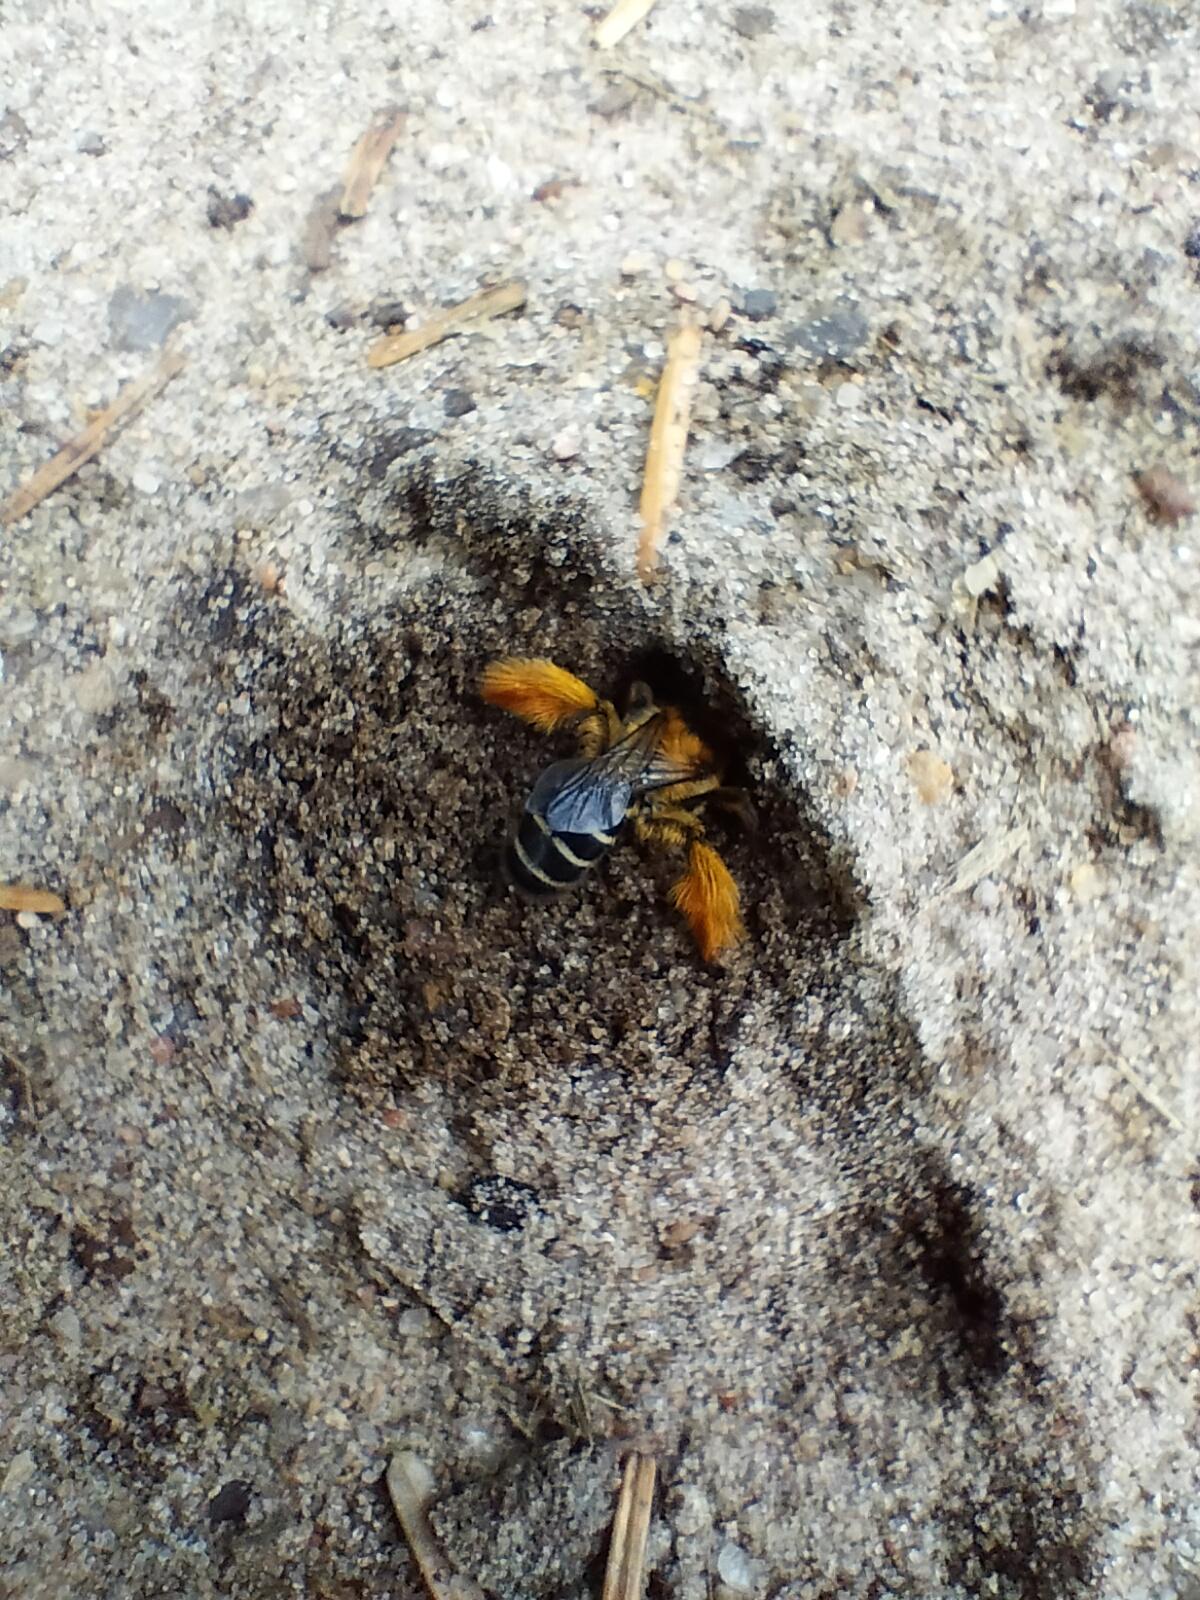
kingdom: Animalia
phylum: Arthropoda
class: Insecta
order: Hymenoptera
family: Melittidae
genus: Dasypoda
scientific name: Dasypoda hirtipes
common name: Pragtbuksebi
